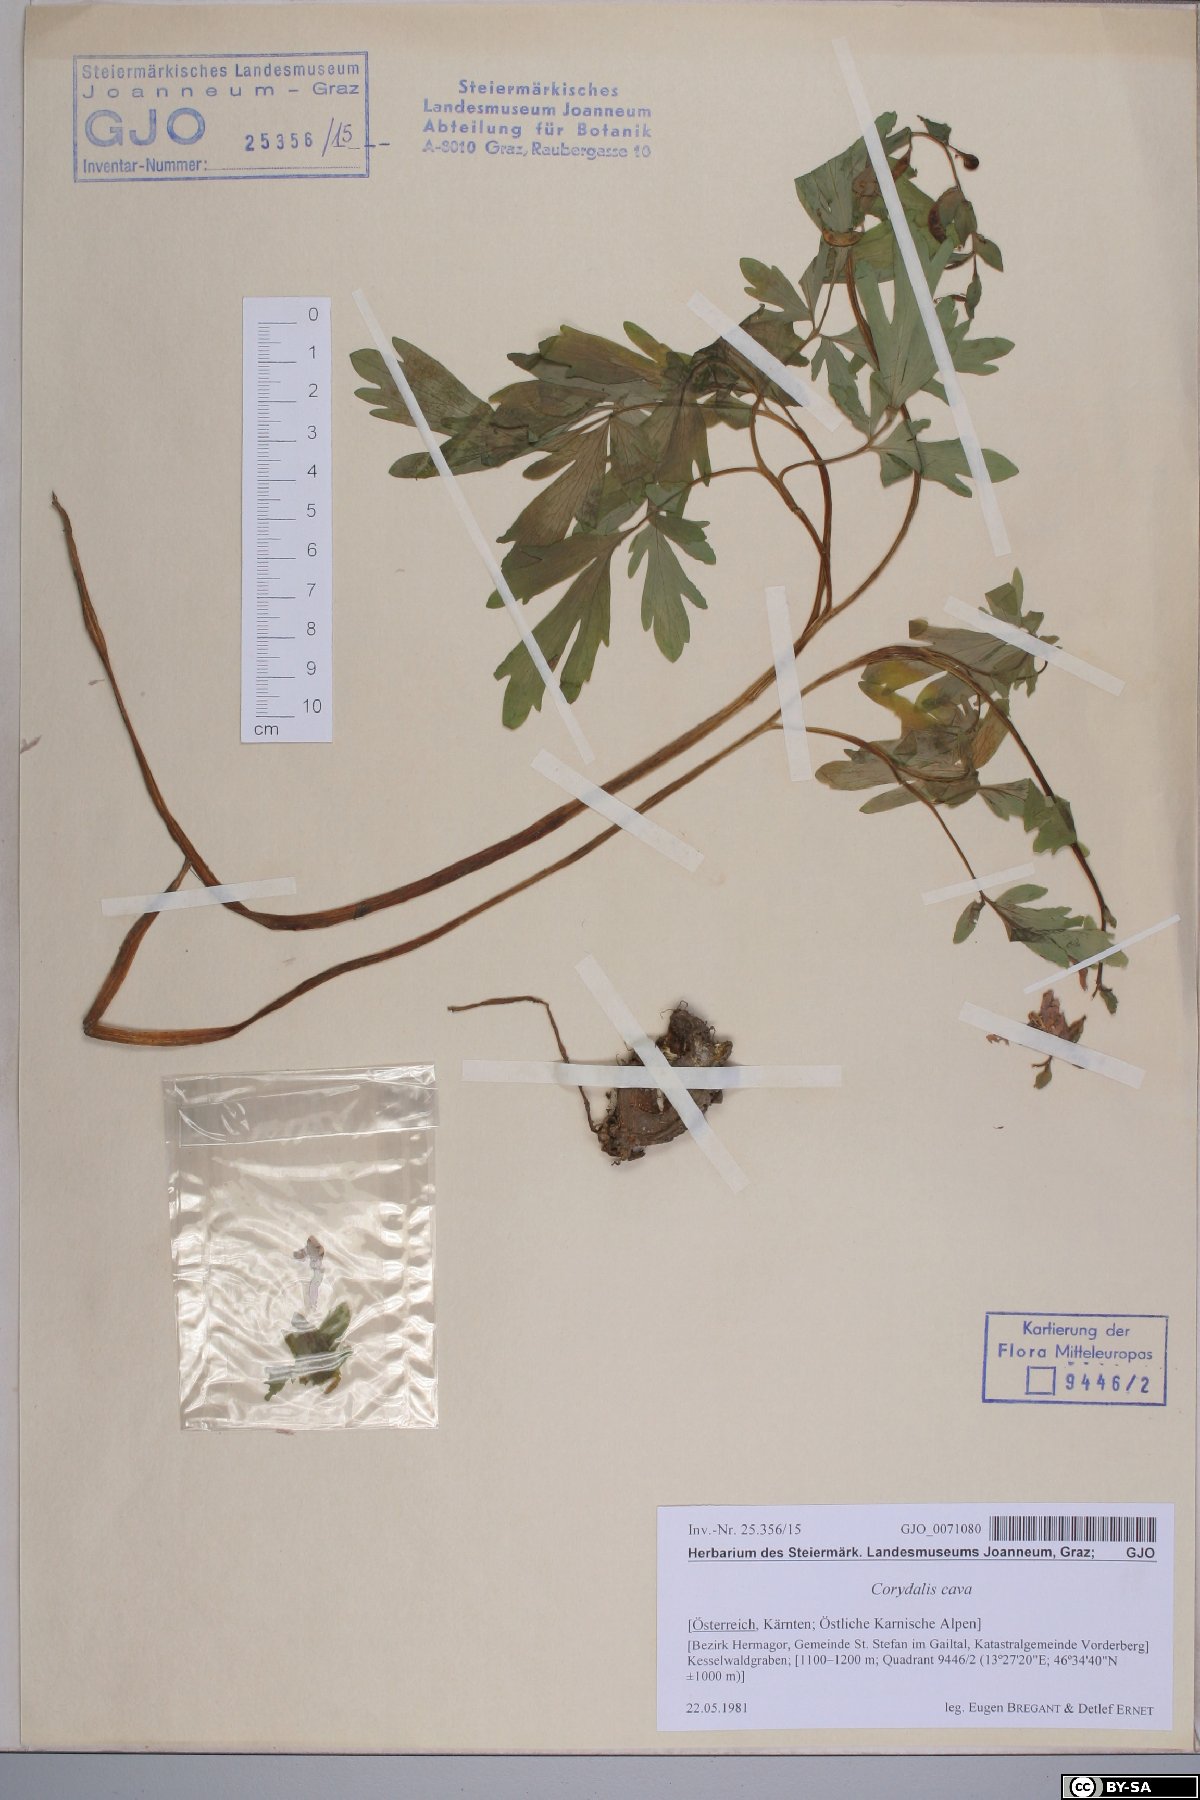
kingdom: Plantae
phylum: Tracheophyta
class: Magnoliopsida
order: Ranunculales
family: Papaveraceae
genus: Corydalis
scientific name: Corydalis cava
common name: Hollowroot
